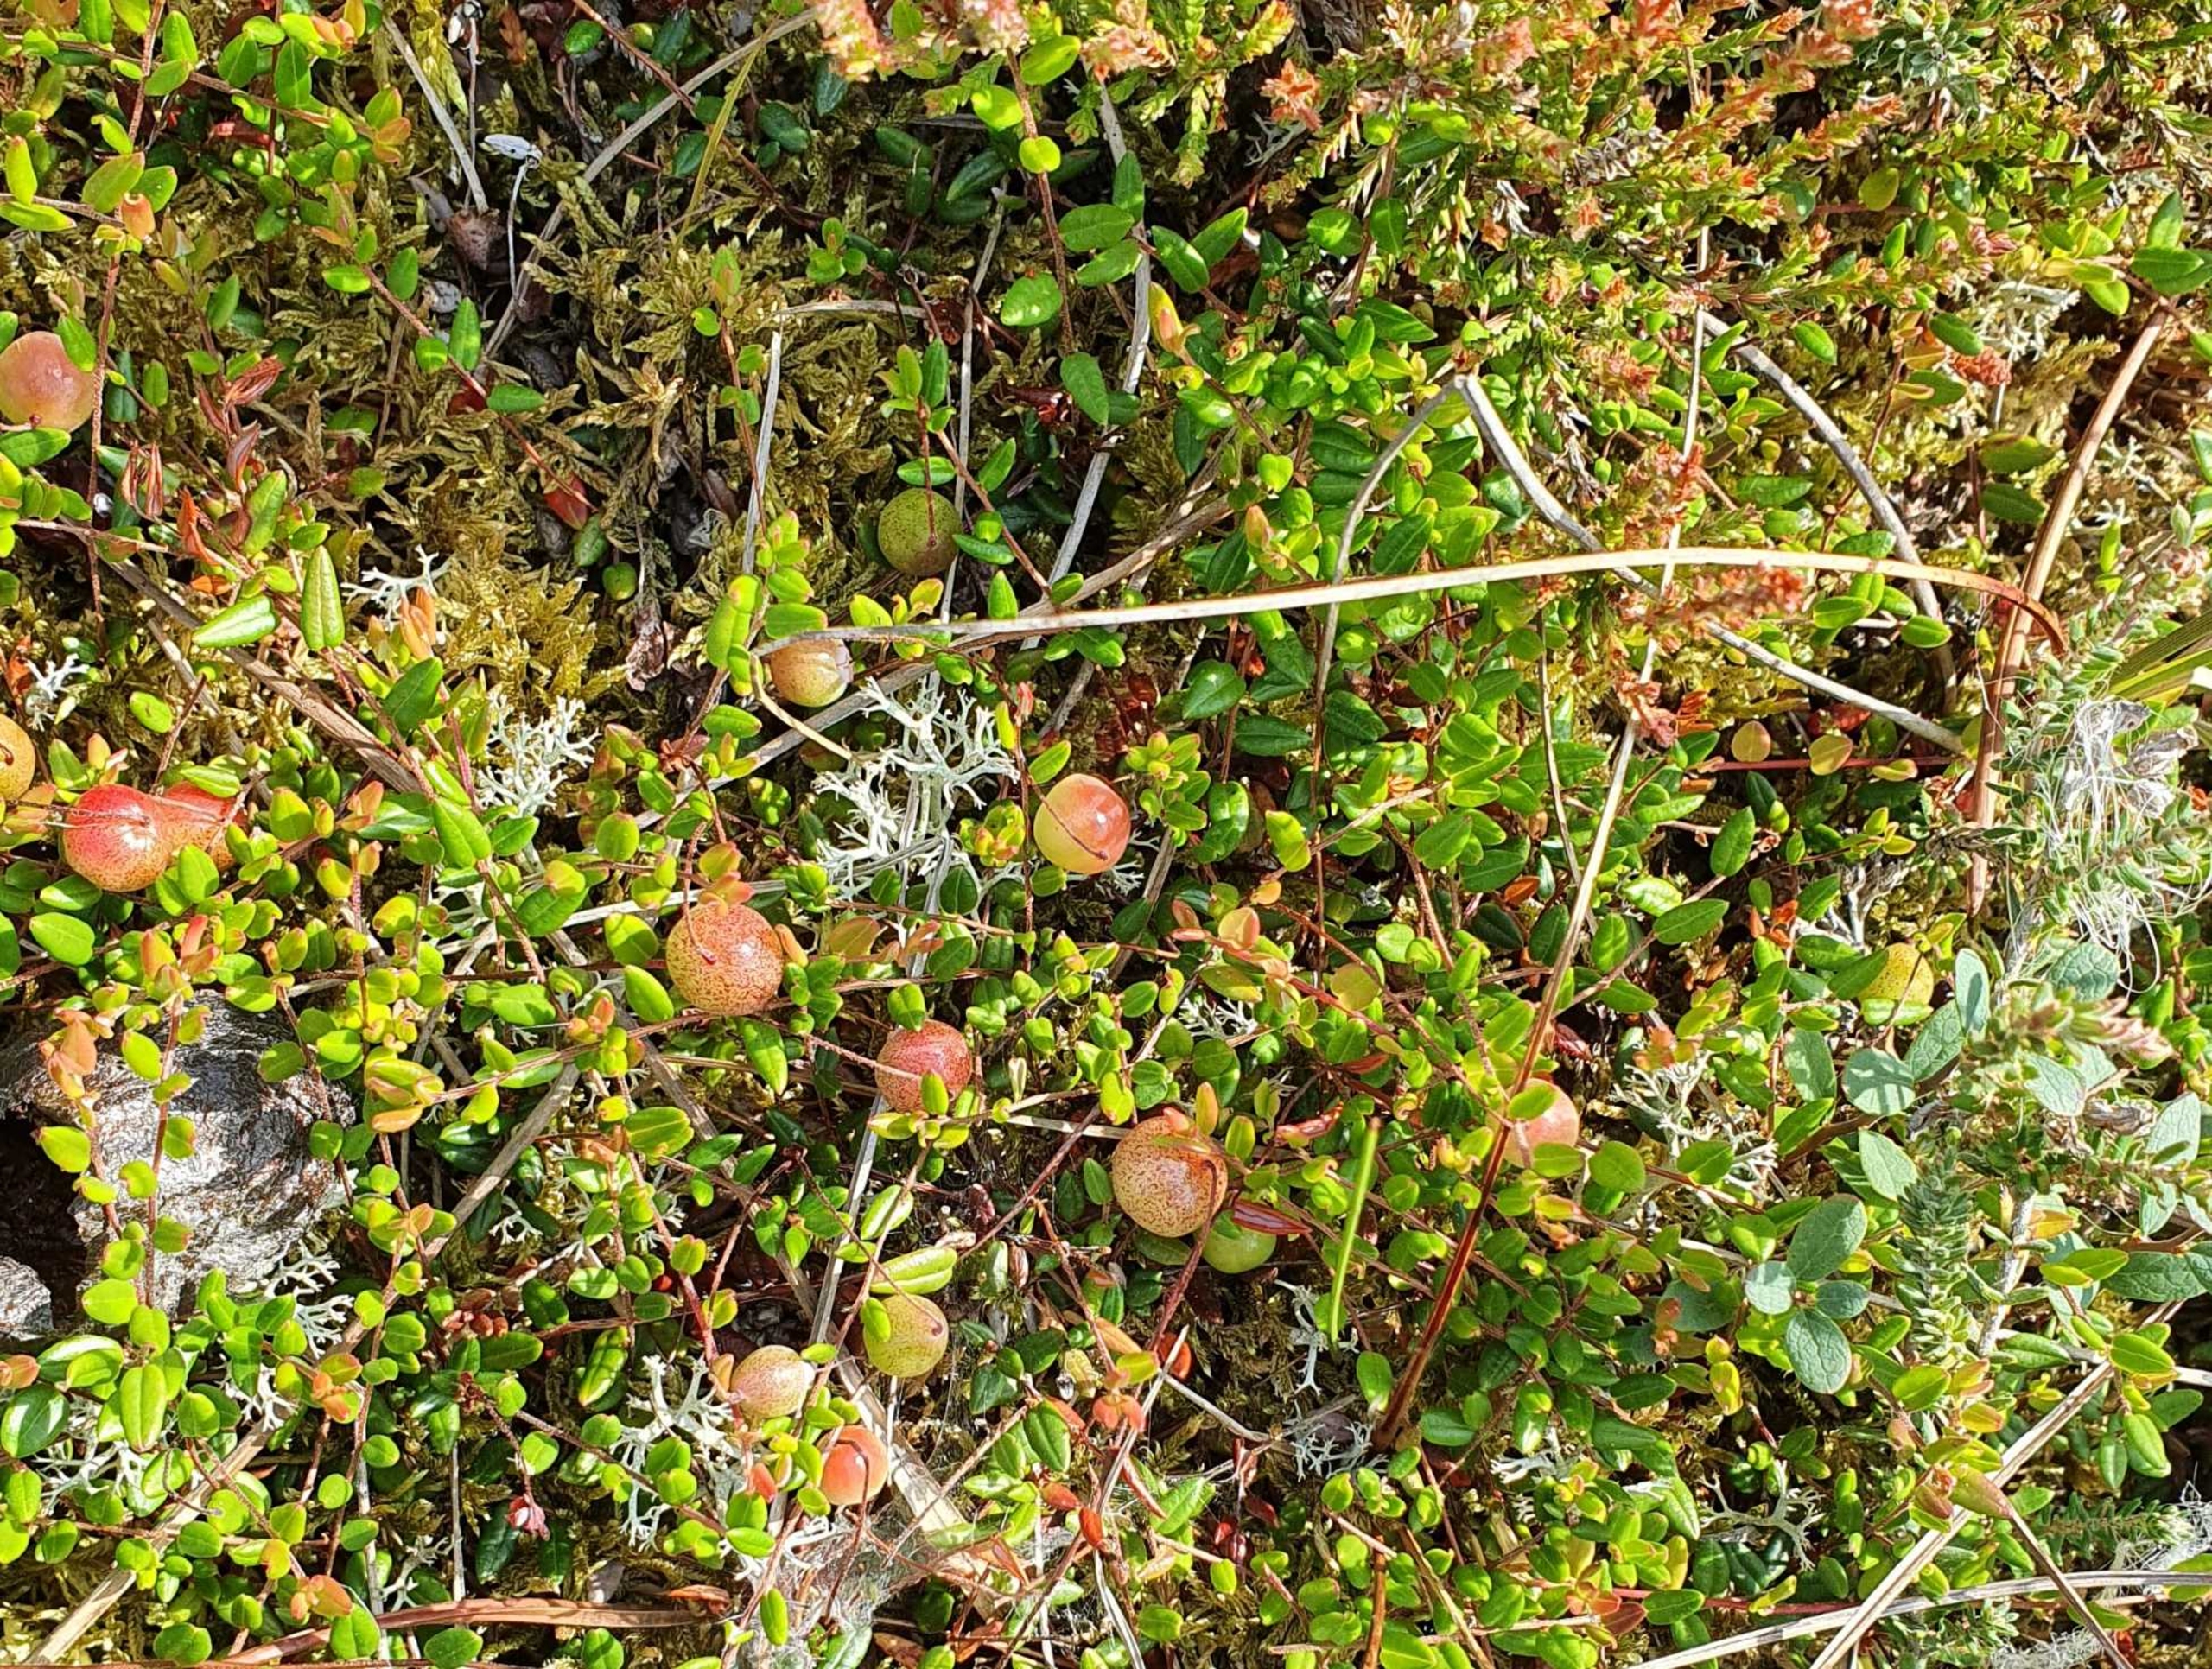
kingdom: Plantae
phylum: Tracheophyta
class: Magnoliopsida
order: Ericales
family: Ericaceae
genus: Vaccinium
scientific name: Vaccinium oxycoccos
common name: Tranebær
